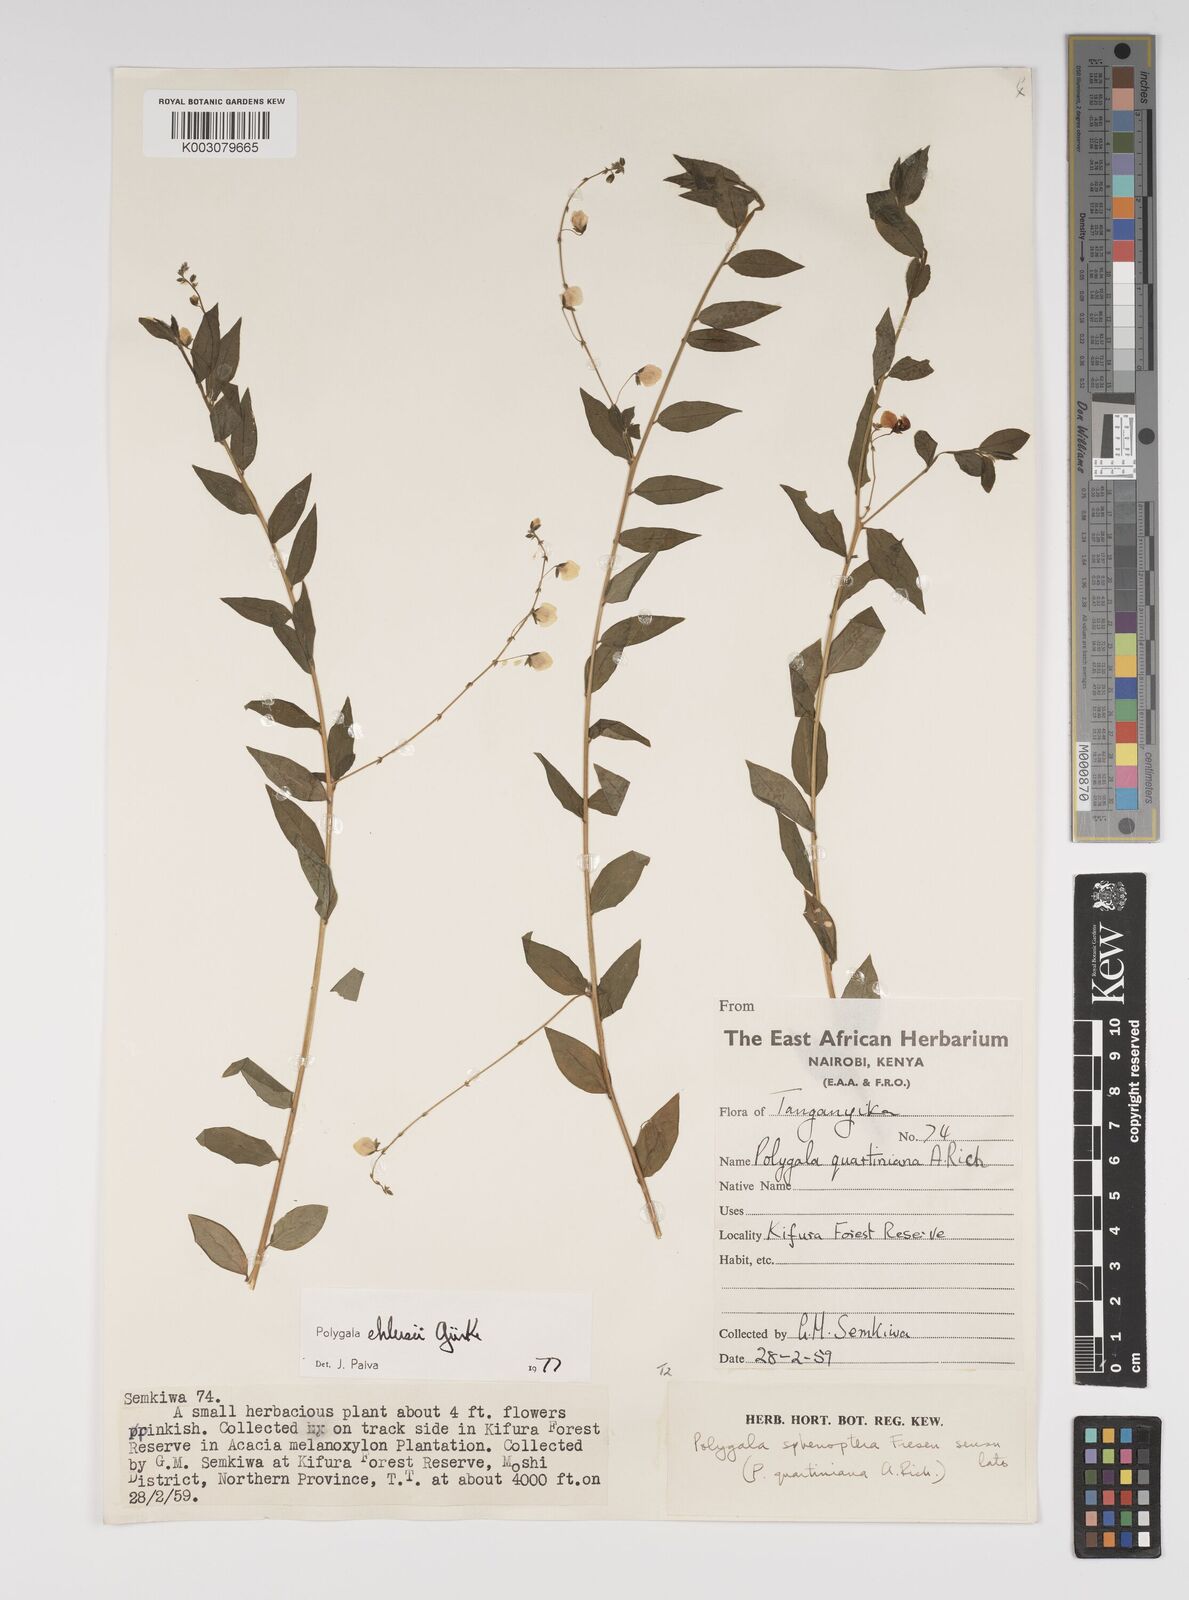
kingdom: Plantae
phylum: Tracheophyta
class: Magnoliopsida
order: Fabales
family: Polygalaceae
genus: Polygala
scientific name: Polygala ehlersii
